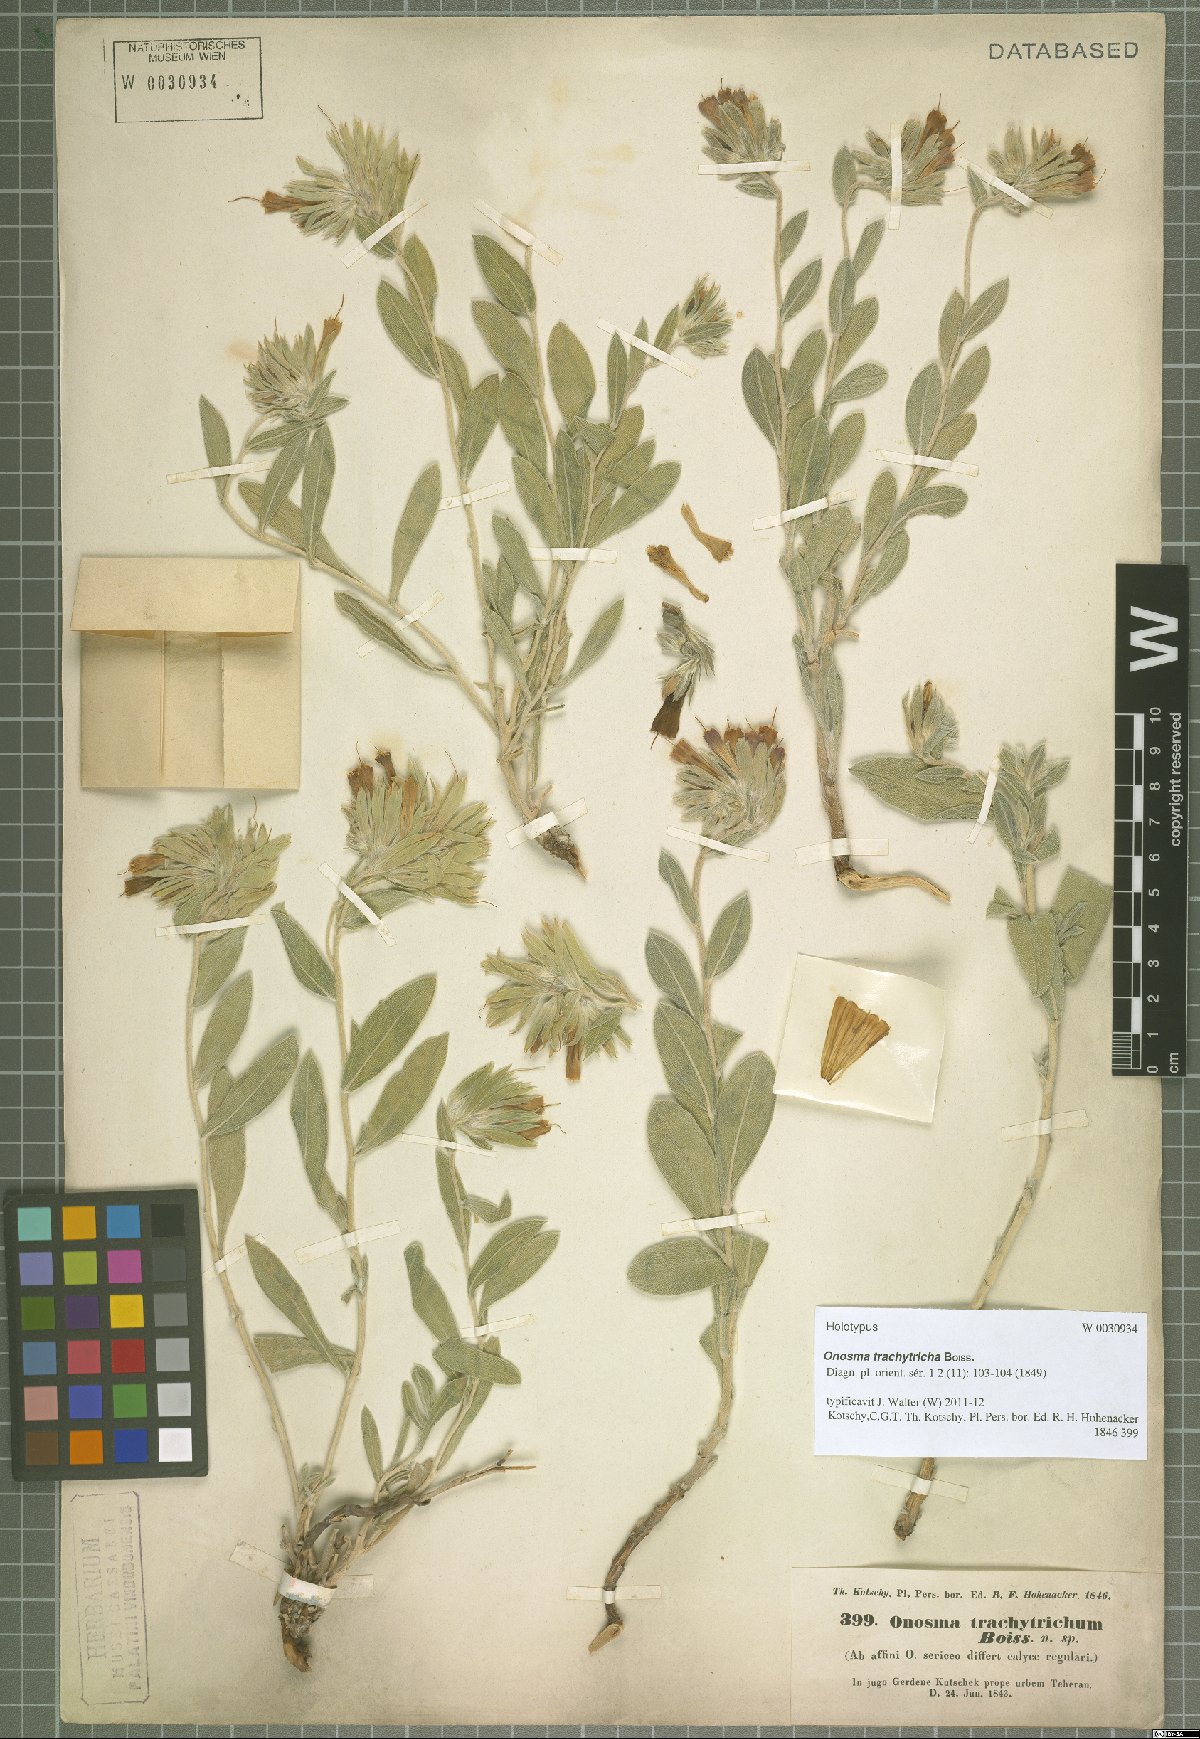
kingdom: Plantae
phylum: Tracheophyta
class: Magnoliopsida
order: Boraginales
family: Boraginaceae
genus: Onosma
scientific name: Onosma trachytricha
